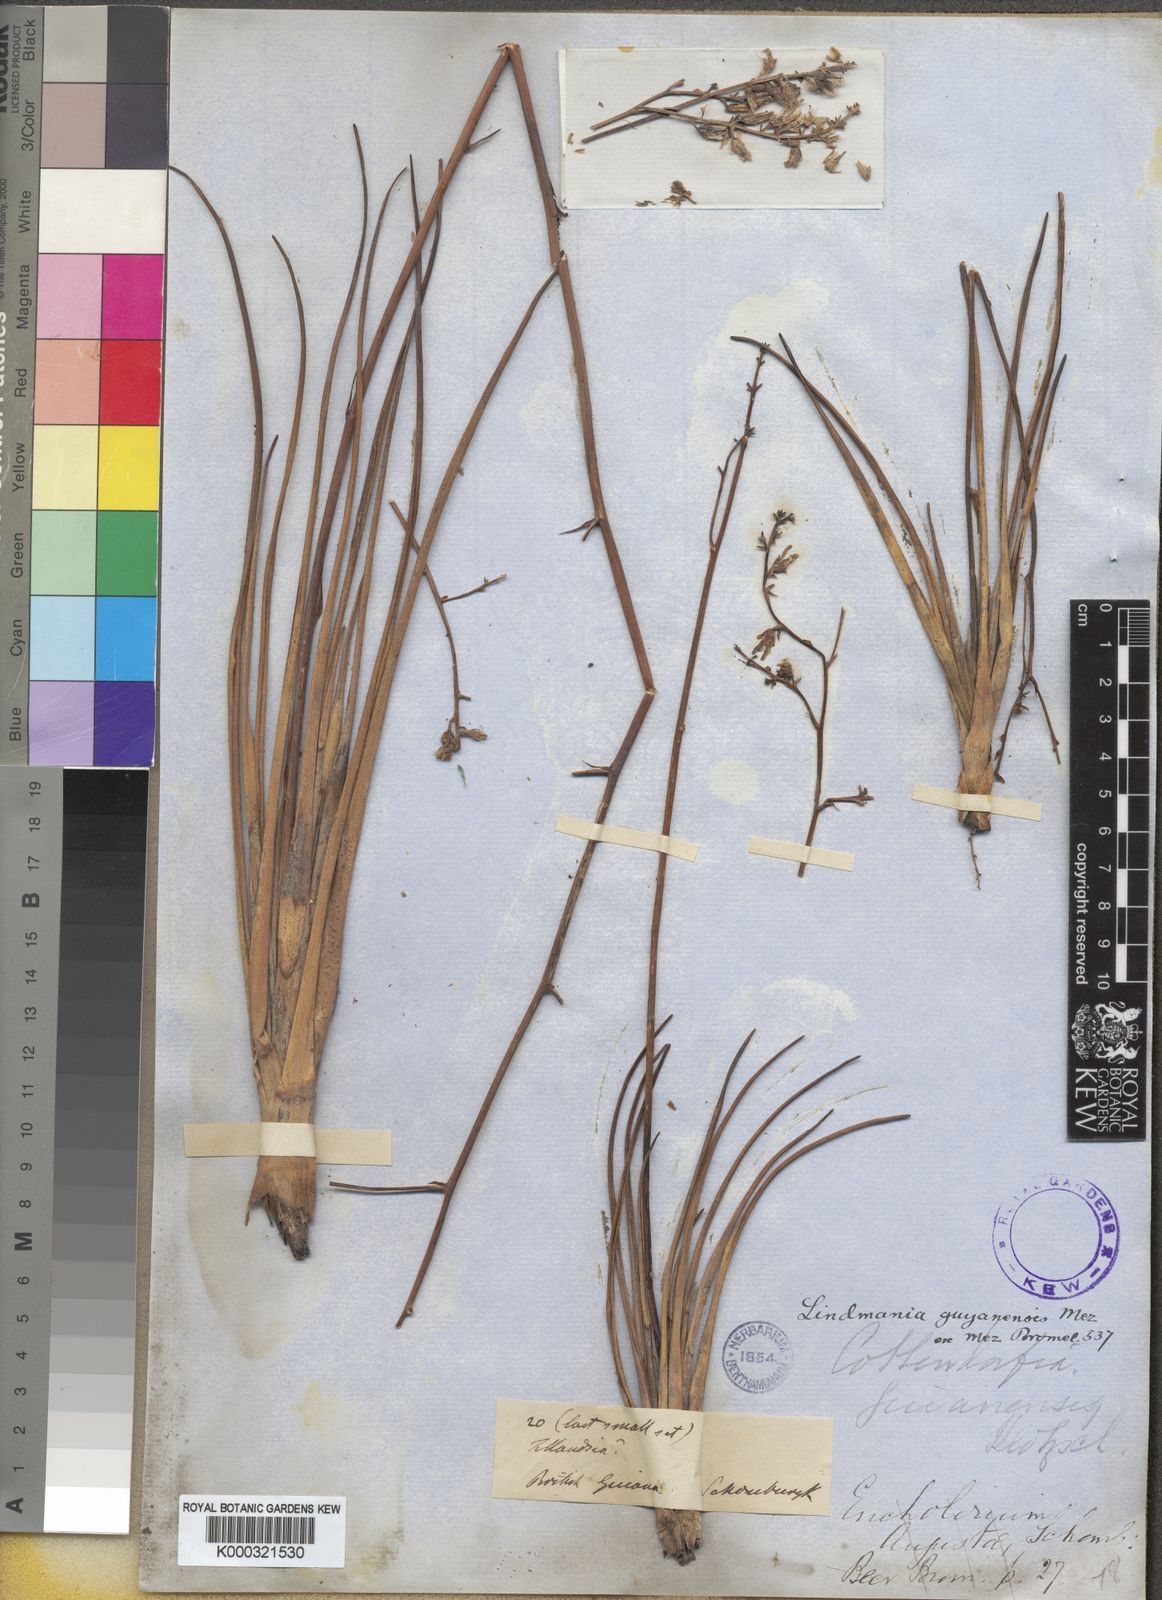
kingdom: Plantae
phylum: Tracheophyta
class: Liliopsida
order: Poales
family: Bromeliaceae
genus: Lindmania
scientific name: Lindmania guianensis
